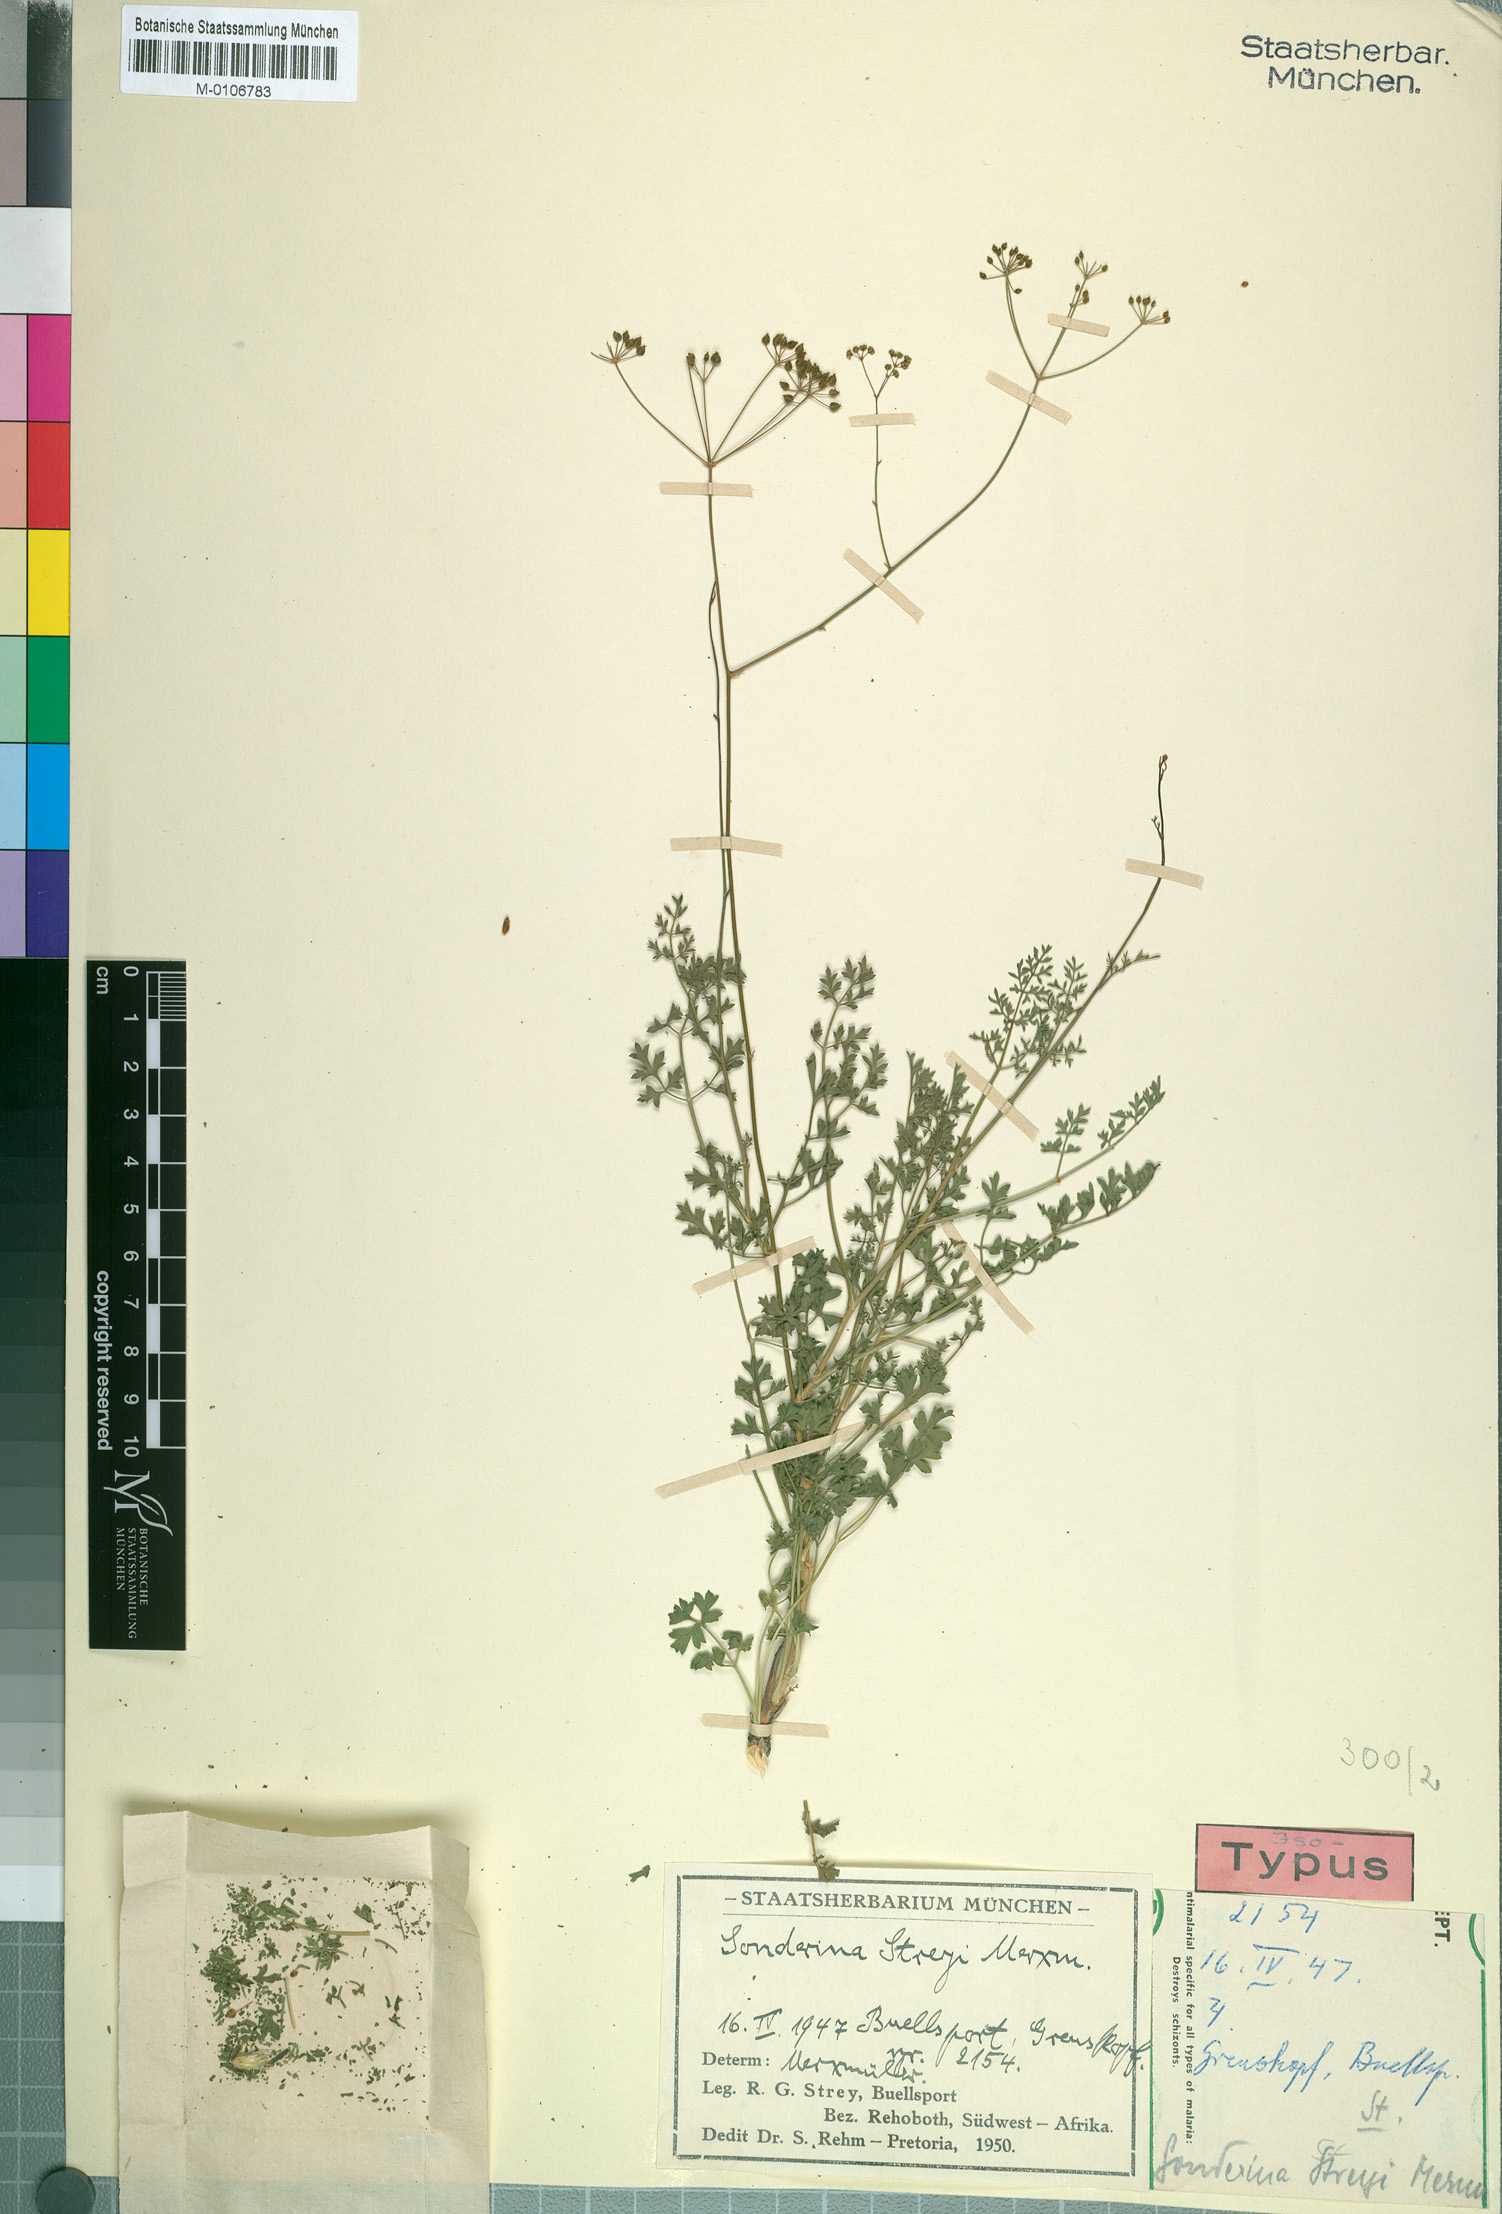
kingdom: Plantae
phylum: Tracheophyta
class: Magnoliopsida
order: Apiales
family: Apiaceae
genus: Anginon
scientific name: Anginon streyi
